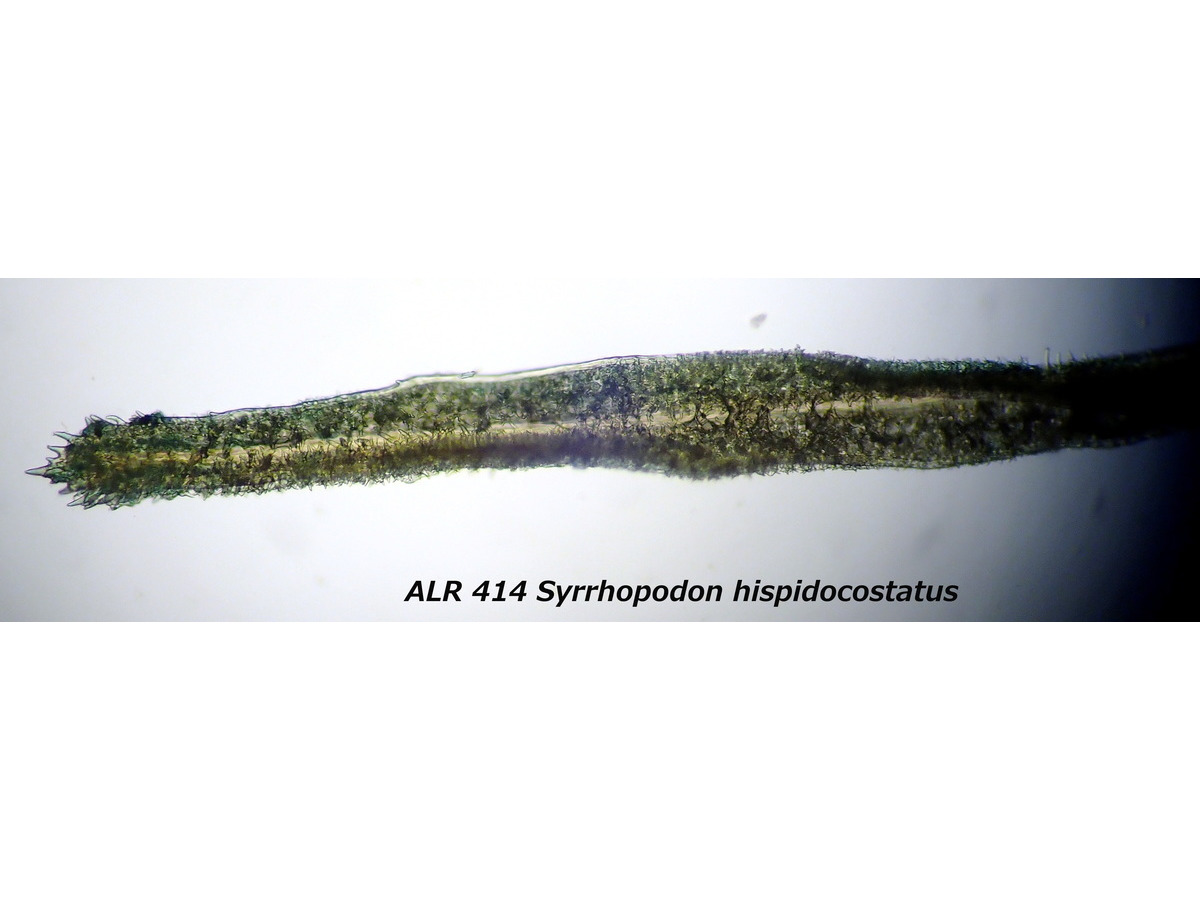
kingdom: Plantae
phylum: Bryophyta
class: Bryopsida
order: Dicranales
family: Calymperaceae
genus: Syrrhopodon
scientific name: Syrrhopodon hispidocostatus
